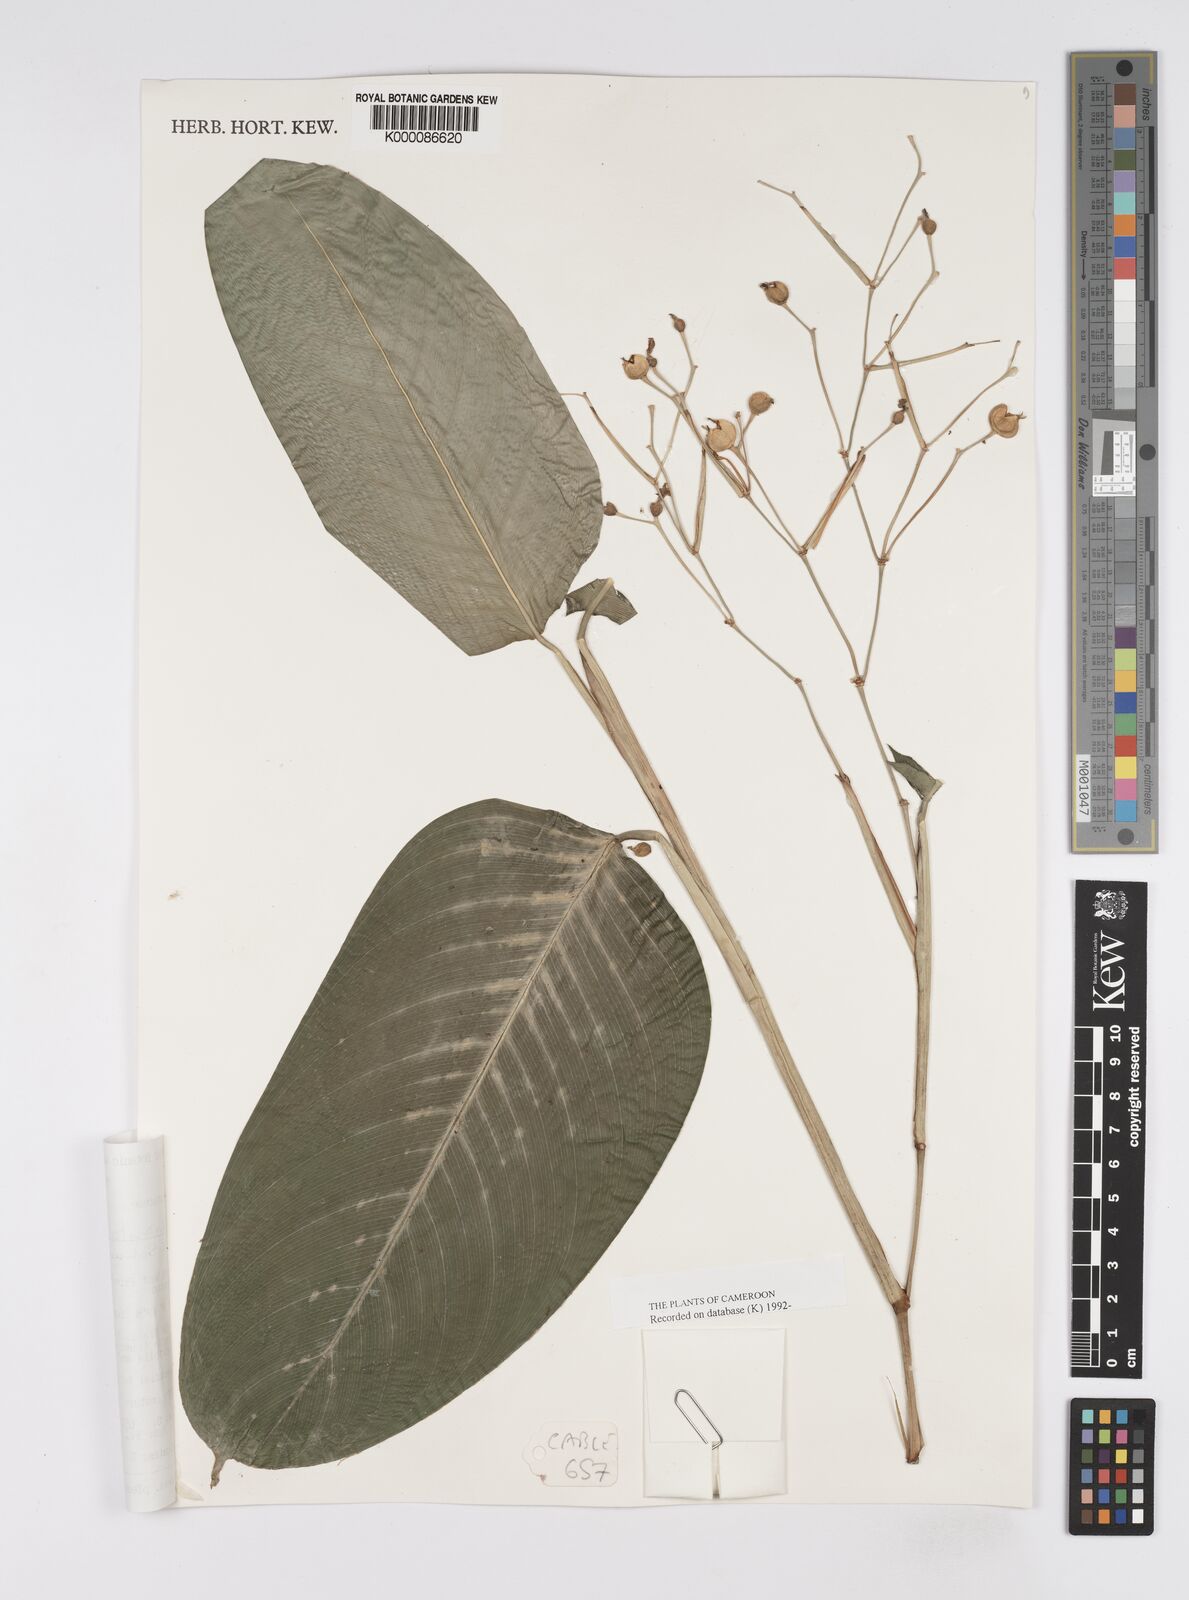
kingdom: Plantae
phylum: Tracheophyta
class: Liliopsida
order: Zingiberales
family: Marantaceae
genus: Marantochloa
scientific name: Marantochloa leucantha
